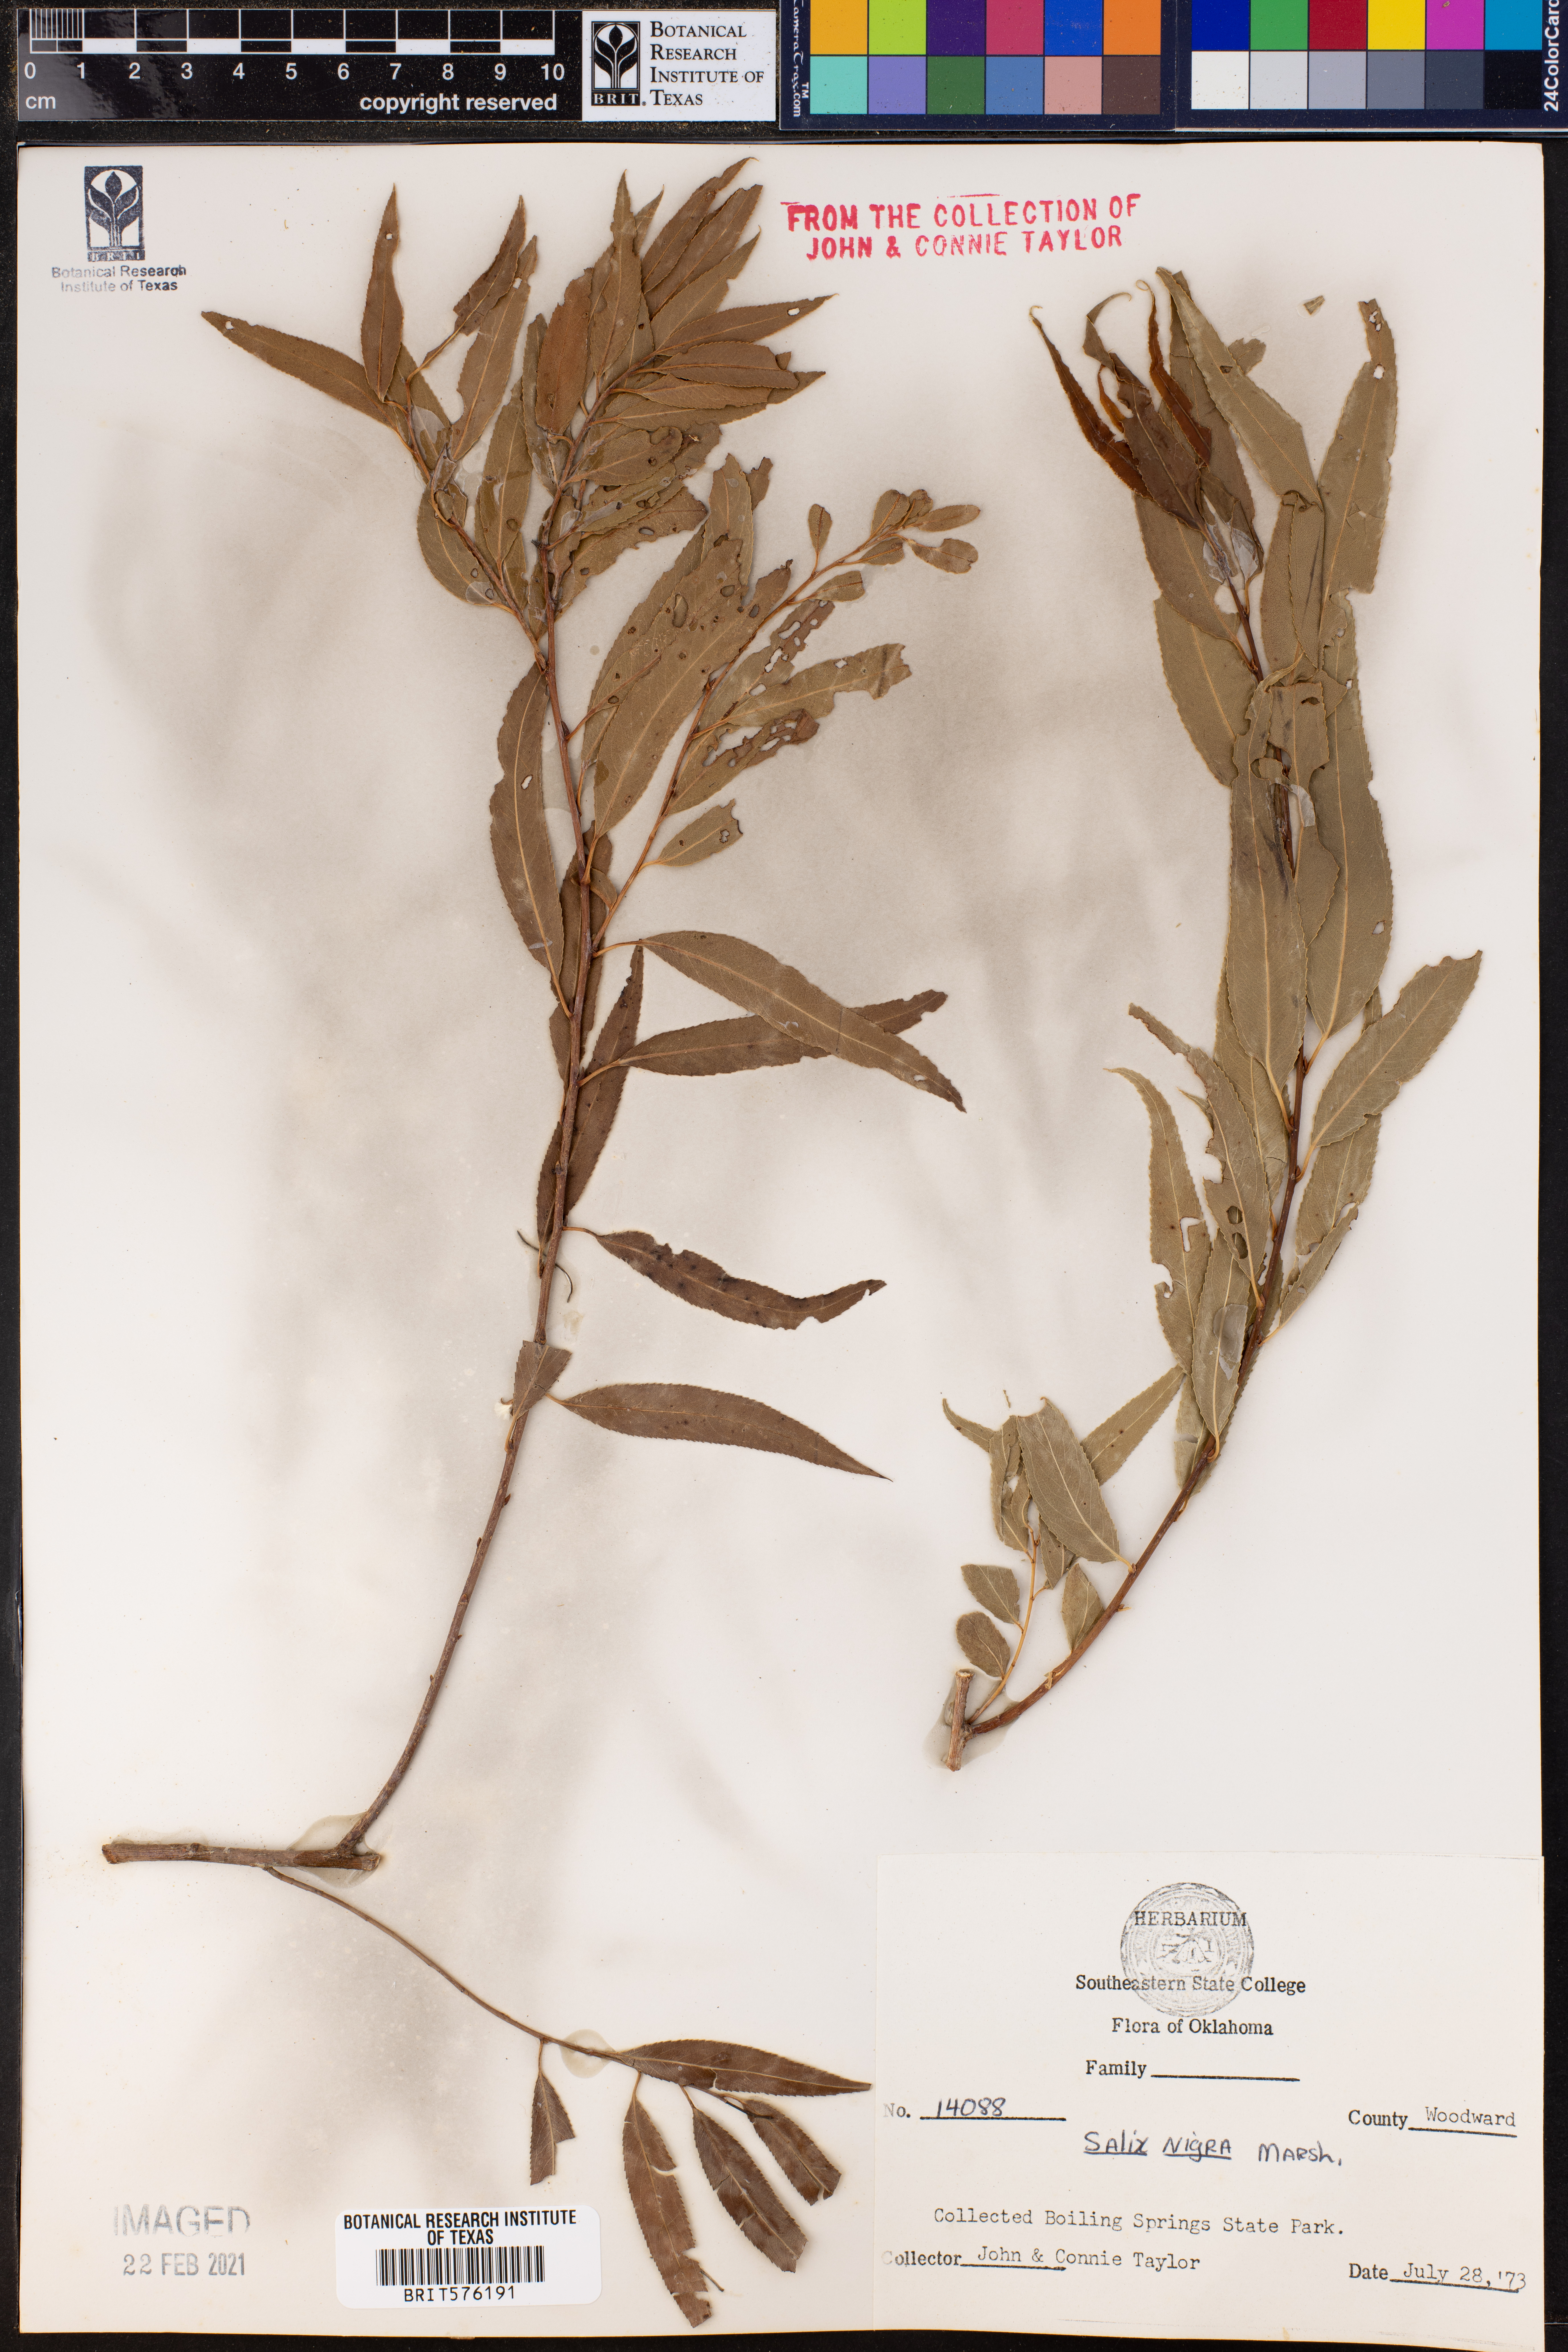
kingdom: Plantae
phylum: Tracheophyta
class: Magnoliopsida
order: Malpighiales
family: Salicaceae
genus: Salix
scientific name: Salix nigra
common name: Black willow
